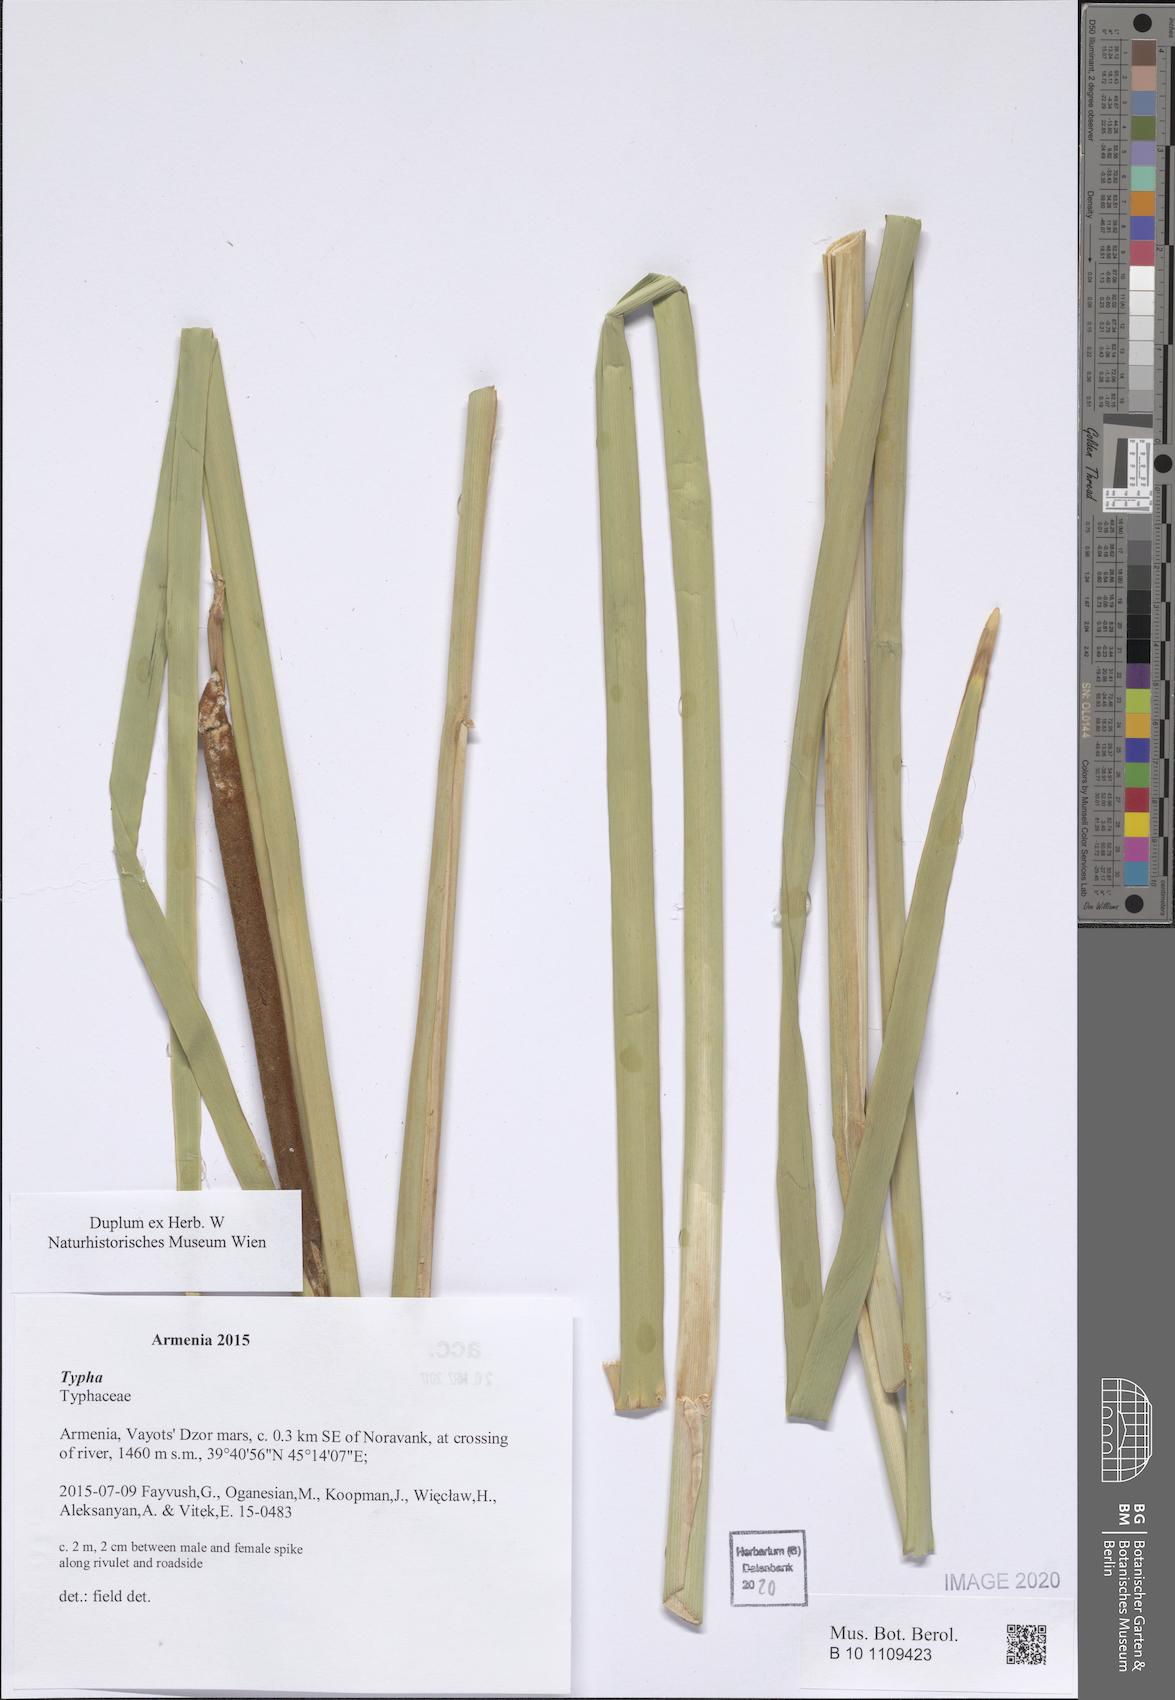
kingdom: Plantae
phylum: Tracheophyta
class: Liliopsida
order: Poales
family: Typhaceae
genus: Typha
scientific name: Typha
